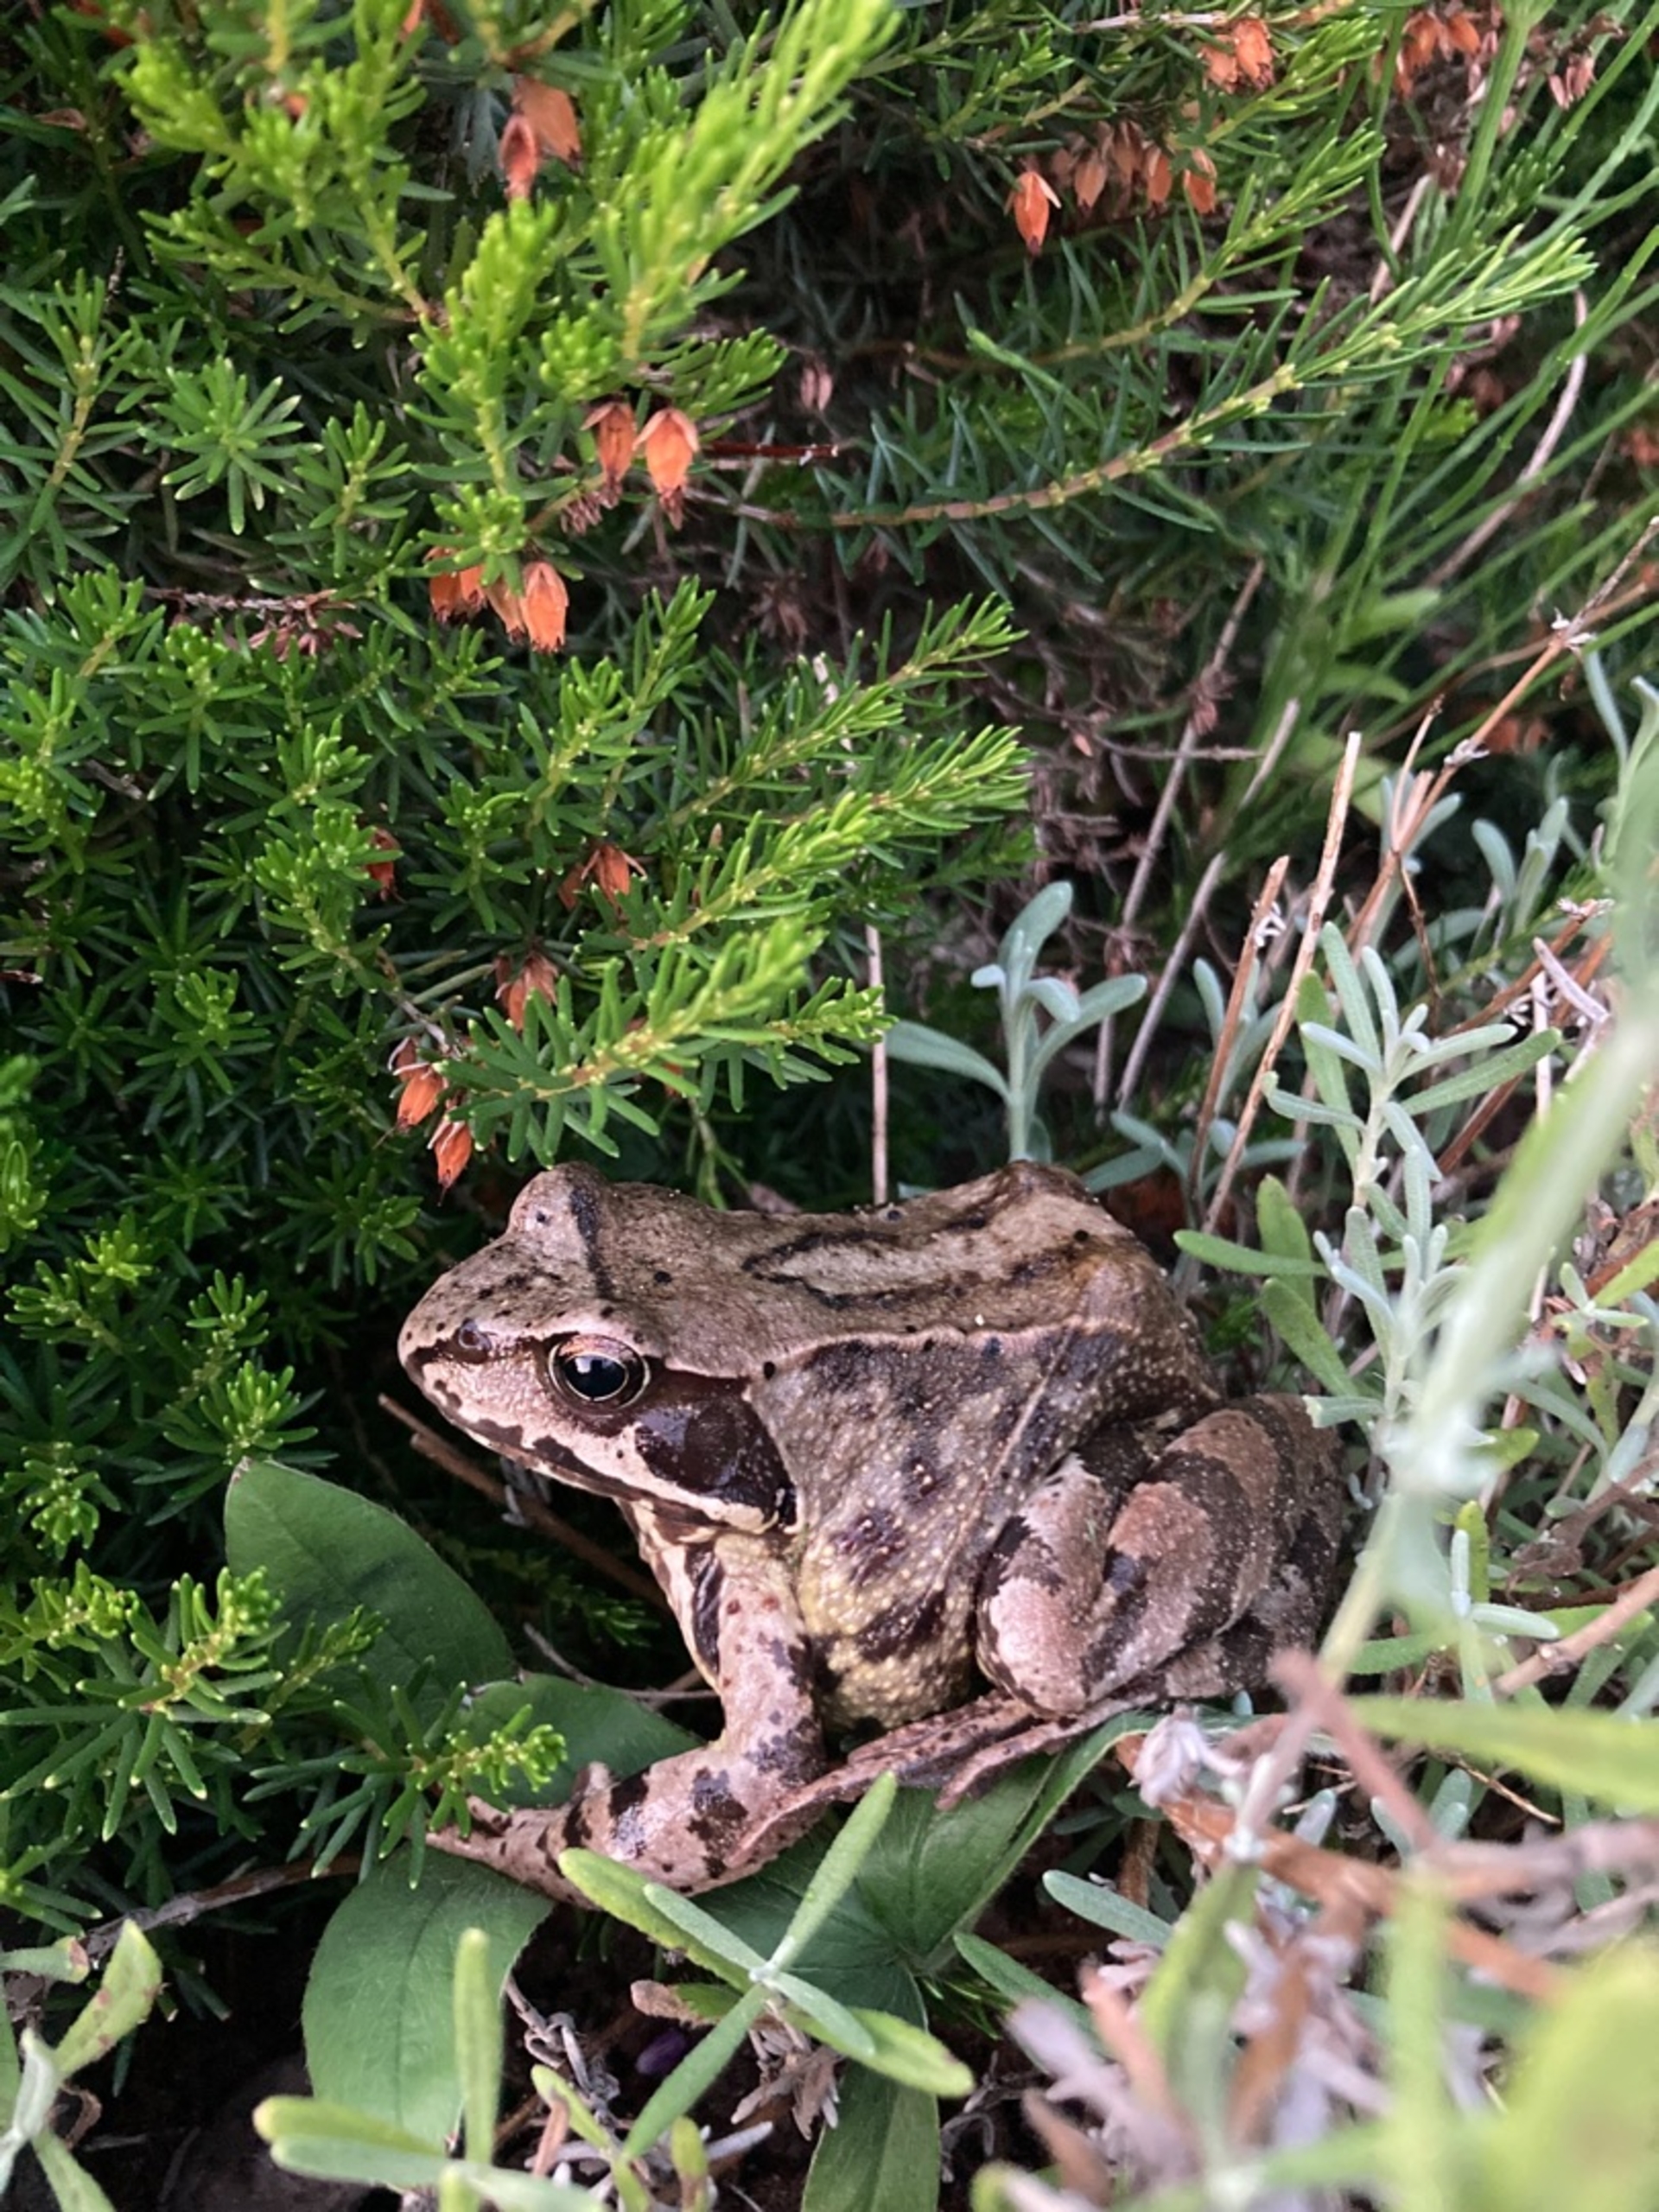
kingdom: Animalia
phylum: Chordata
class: Amphibia
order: Anura
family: Ranidae
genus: Rana
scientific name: Rana temporaria
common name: Butsnudet frø
